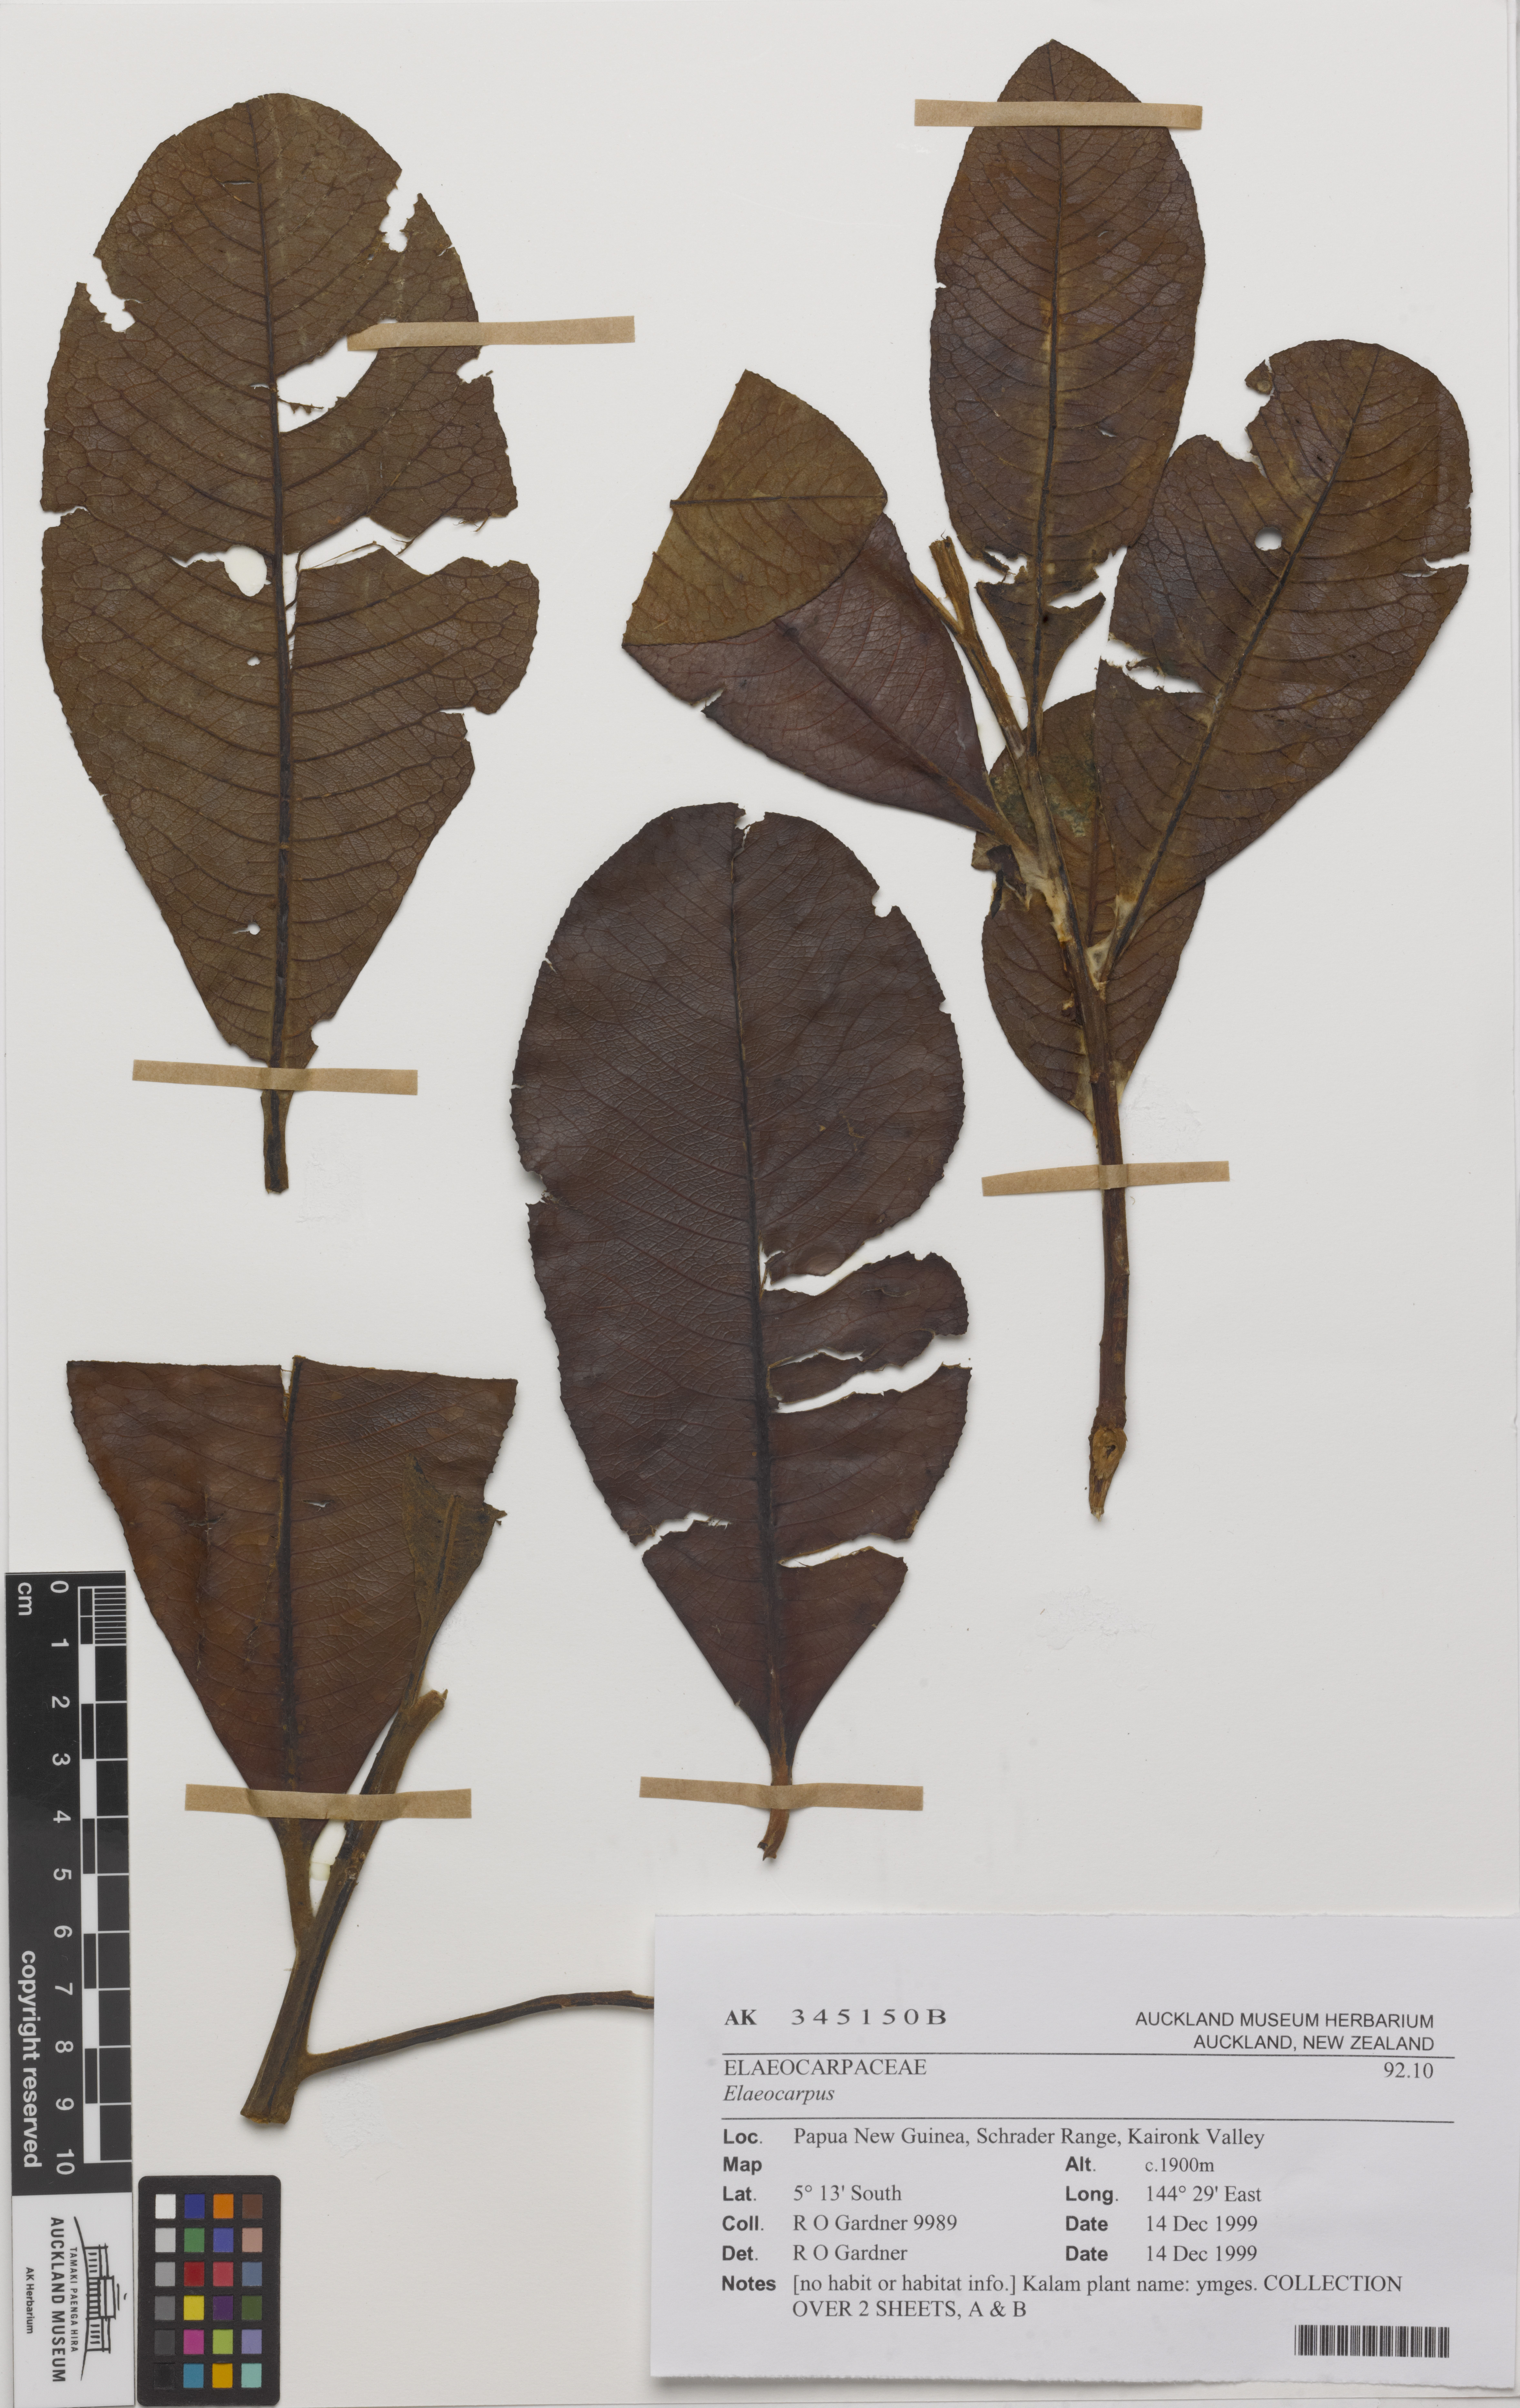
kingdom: Plantae
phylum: Tracheophyta
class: Magnoliopsida
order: Oxalidales
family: Elaeocarpaceae
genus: Elaeocarpus
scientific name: Elaeocarpus
